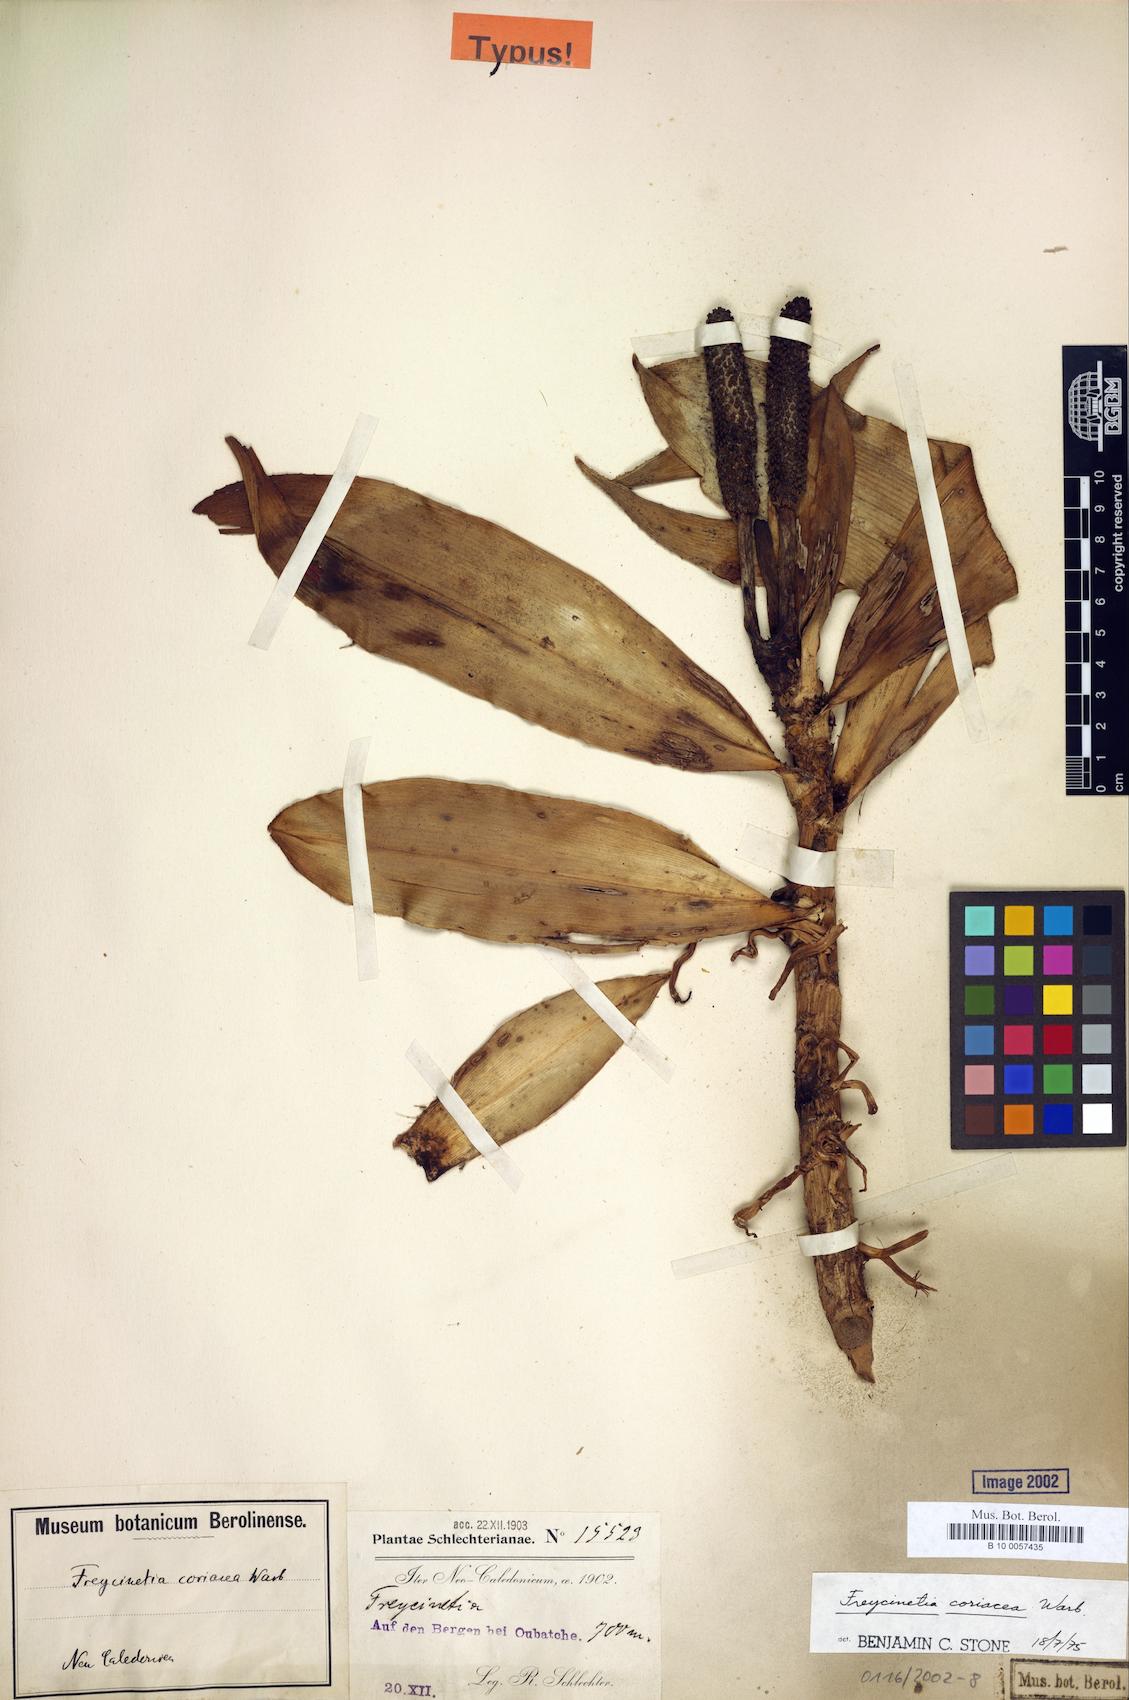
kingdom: Plantae
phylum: Tracheophyta
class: Liliopsida
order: Pandanales
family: Pandanaceae
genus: Freycinetia
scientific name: Freycinetia spectabilis
